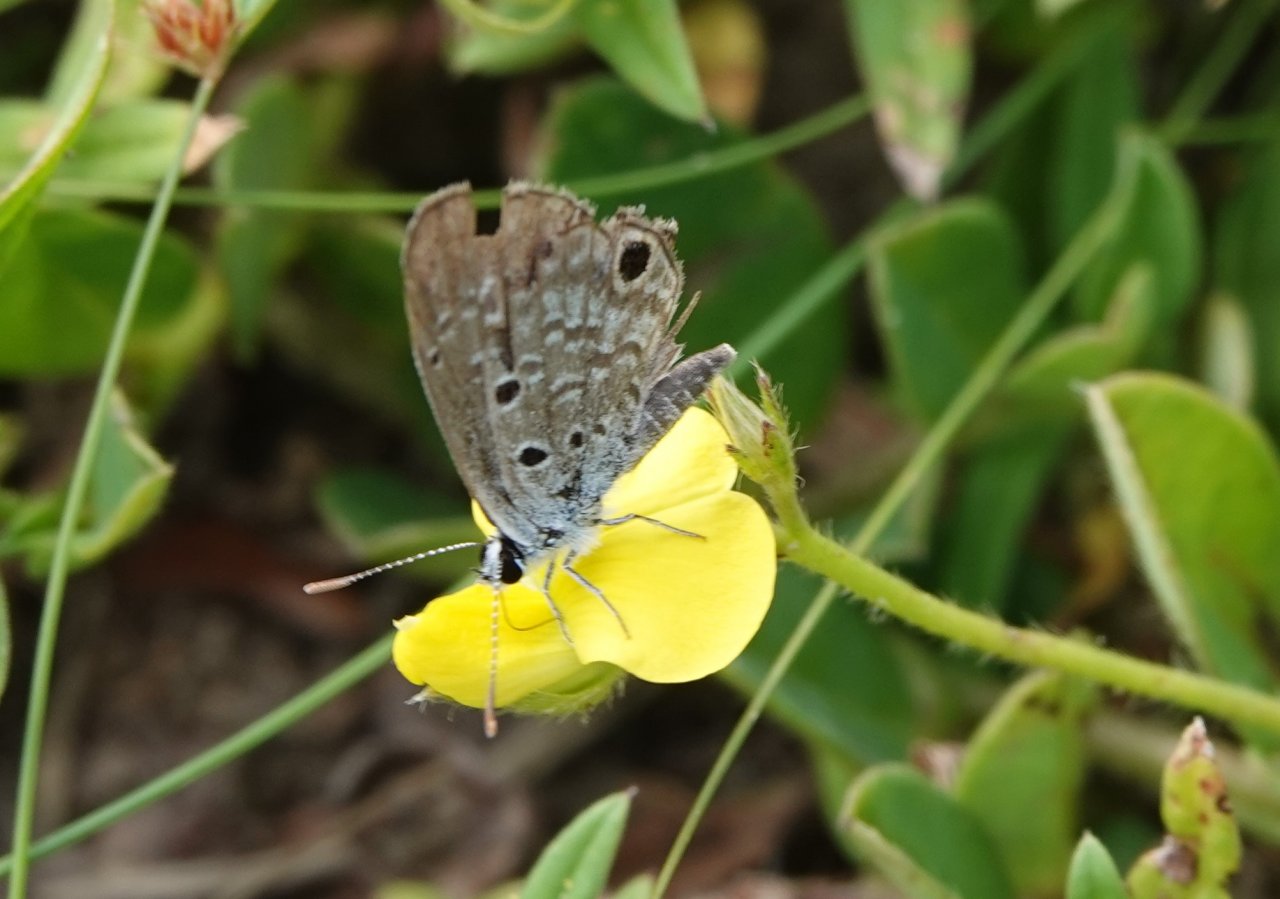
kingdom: Animalia
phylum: Arthropoda
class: Insecta
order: Lepidoptera
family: Lycaenidae
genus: Hemiargus
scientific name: Hemiargus ceraunus
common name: Ceraunus Blue
